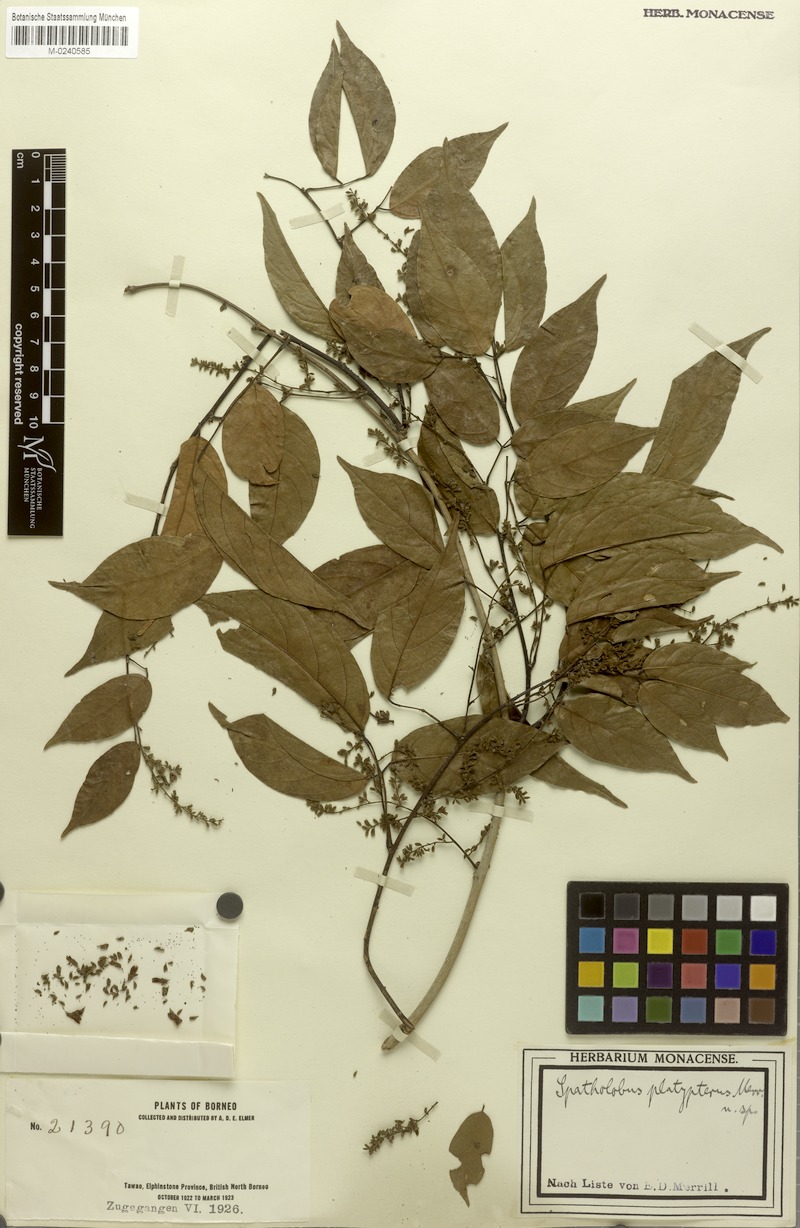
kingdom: Plantae
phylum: Tracheophyta
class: Magnoliopsida
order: Fabales
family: Fabaceae
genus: Spatholobus
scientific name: Spatholobus macropterus
